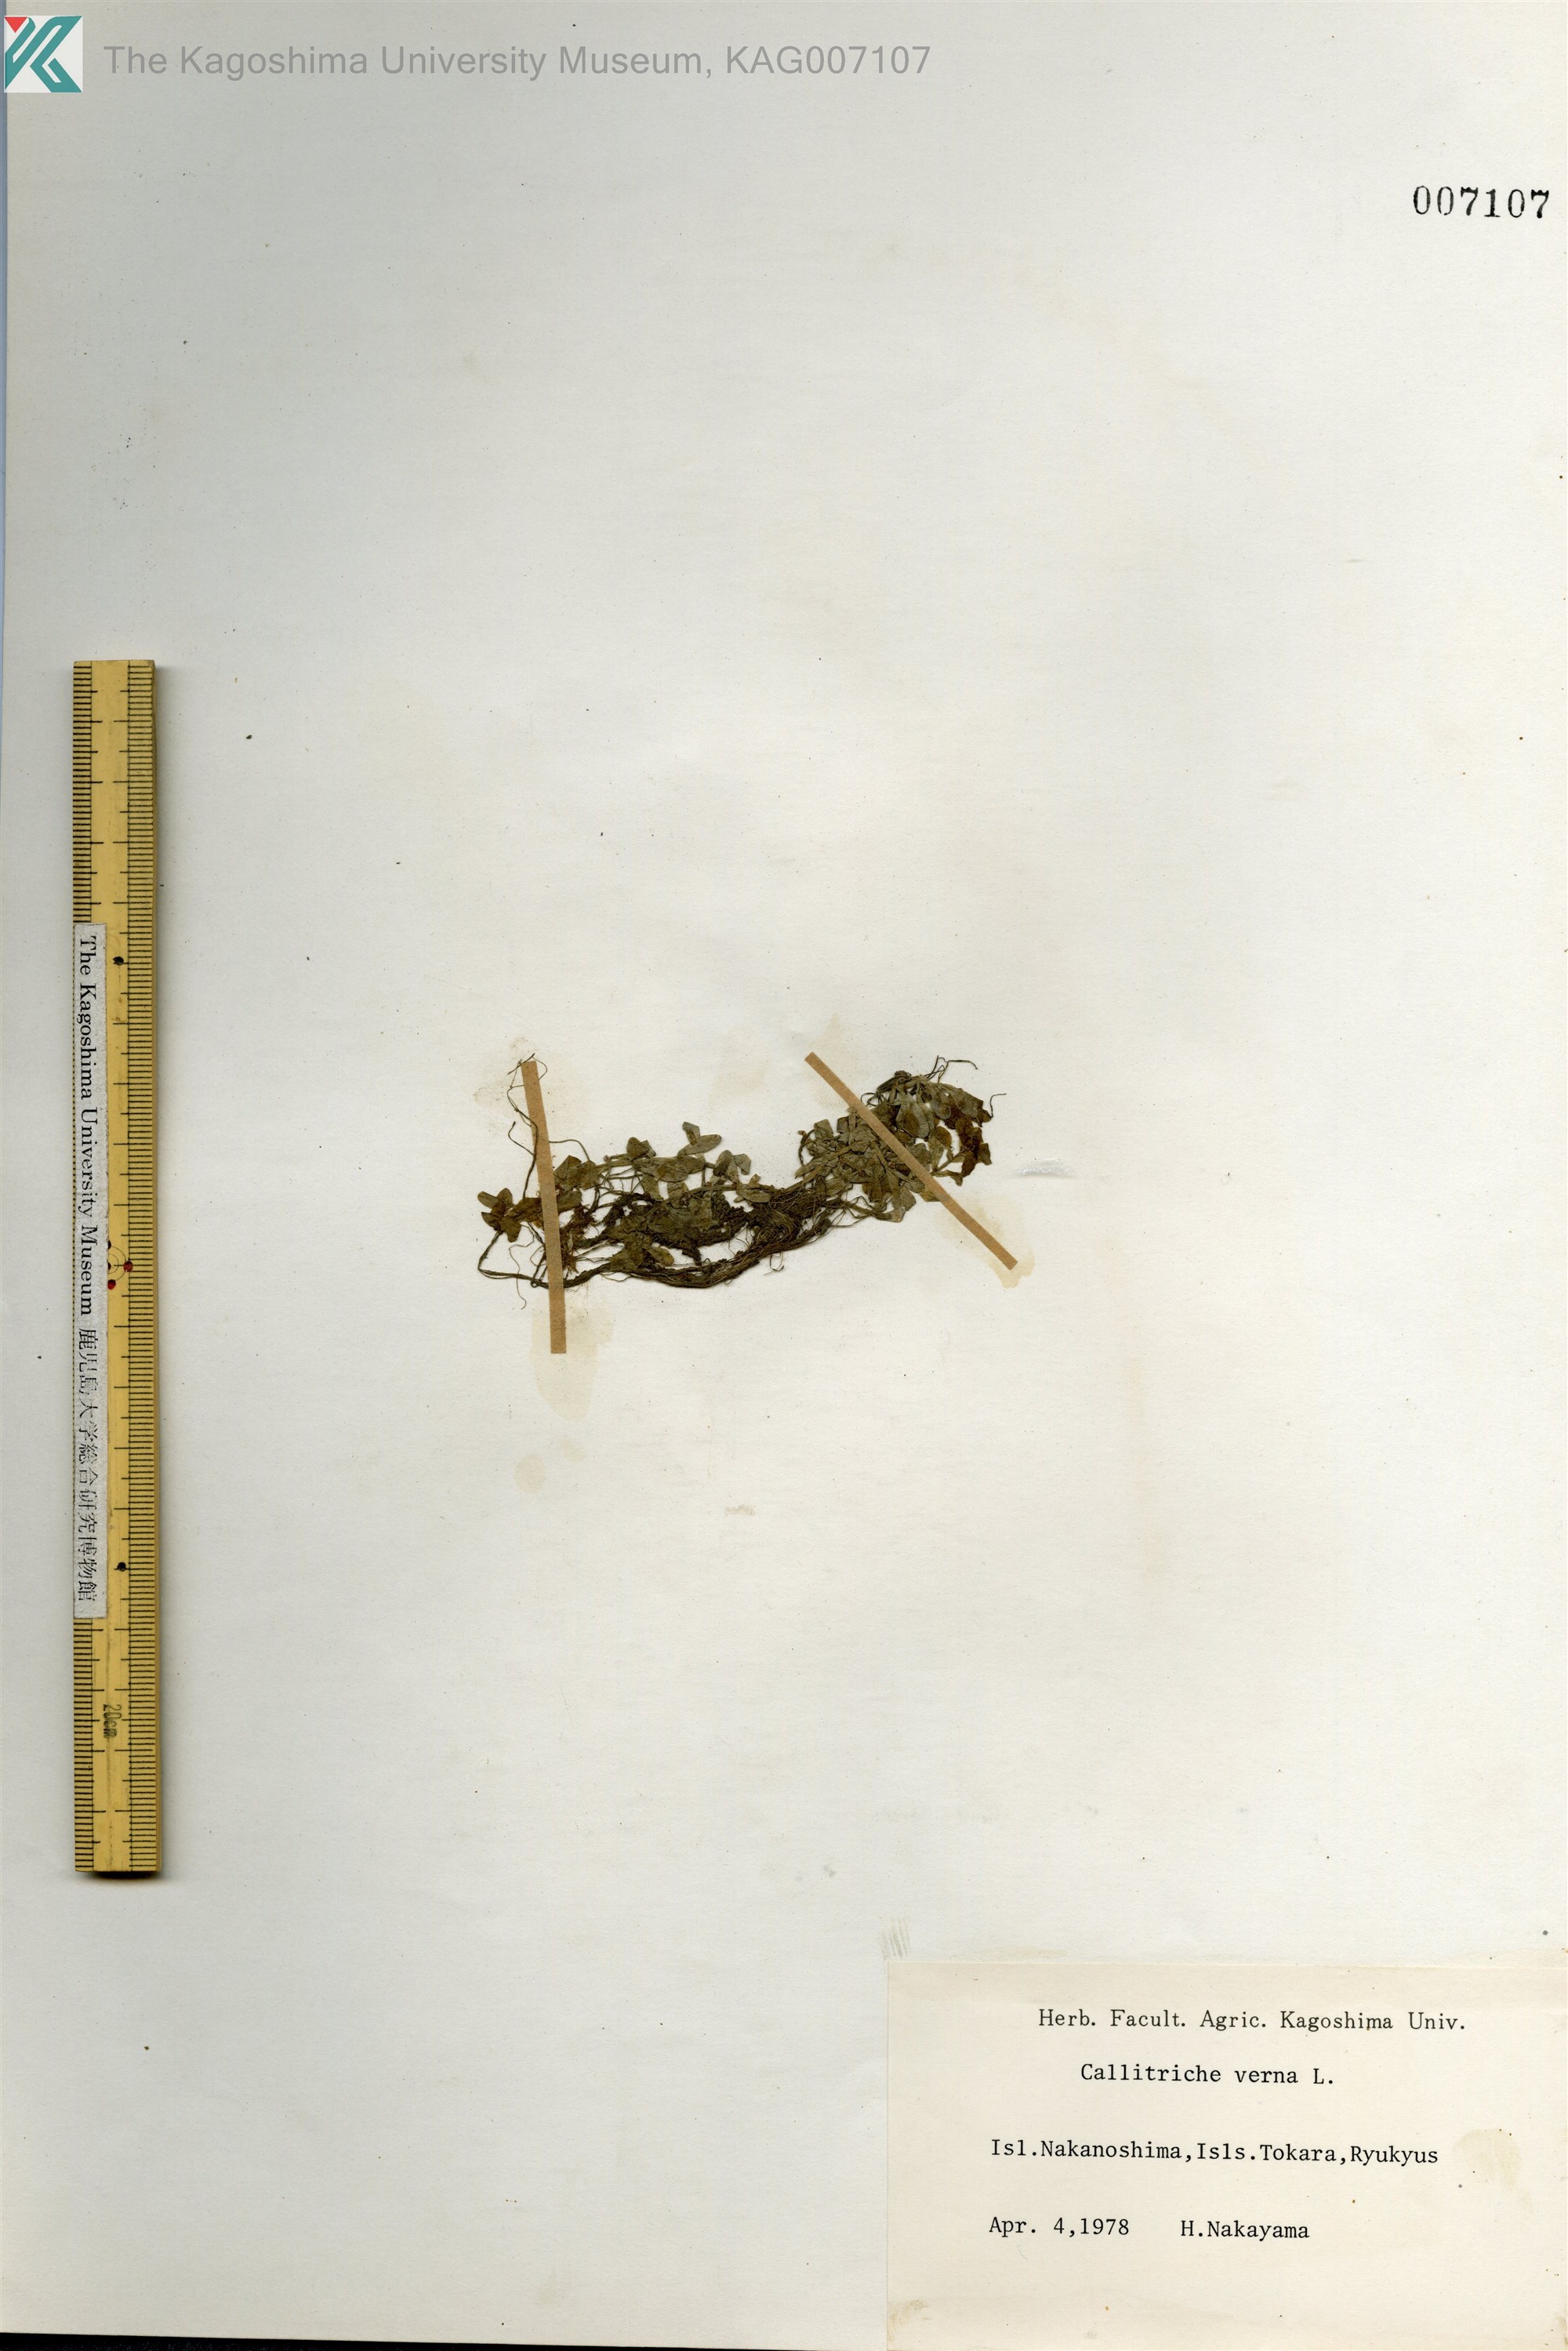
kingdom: Plantae
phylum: Tracheophyta
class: Magnoliopsida
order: Lamiales
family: Plantaginaceae
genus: Callitriche
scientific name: Callitriche palustris
